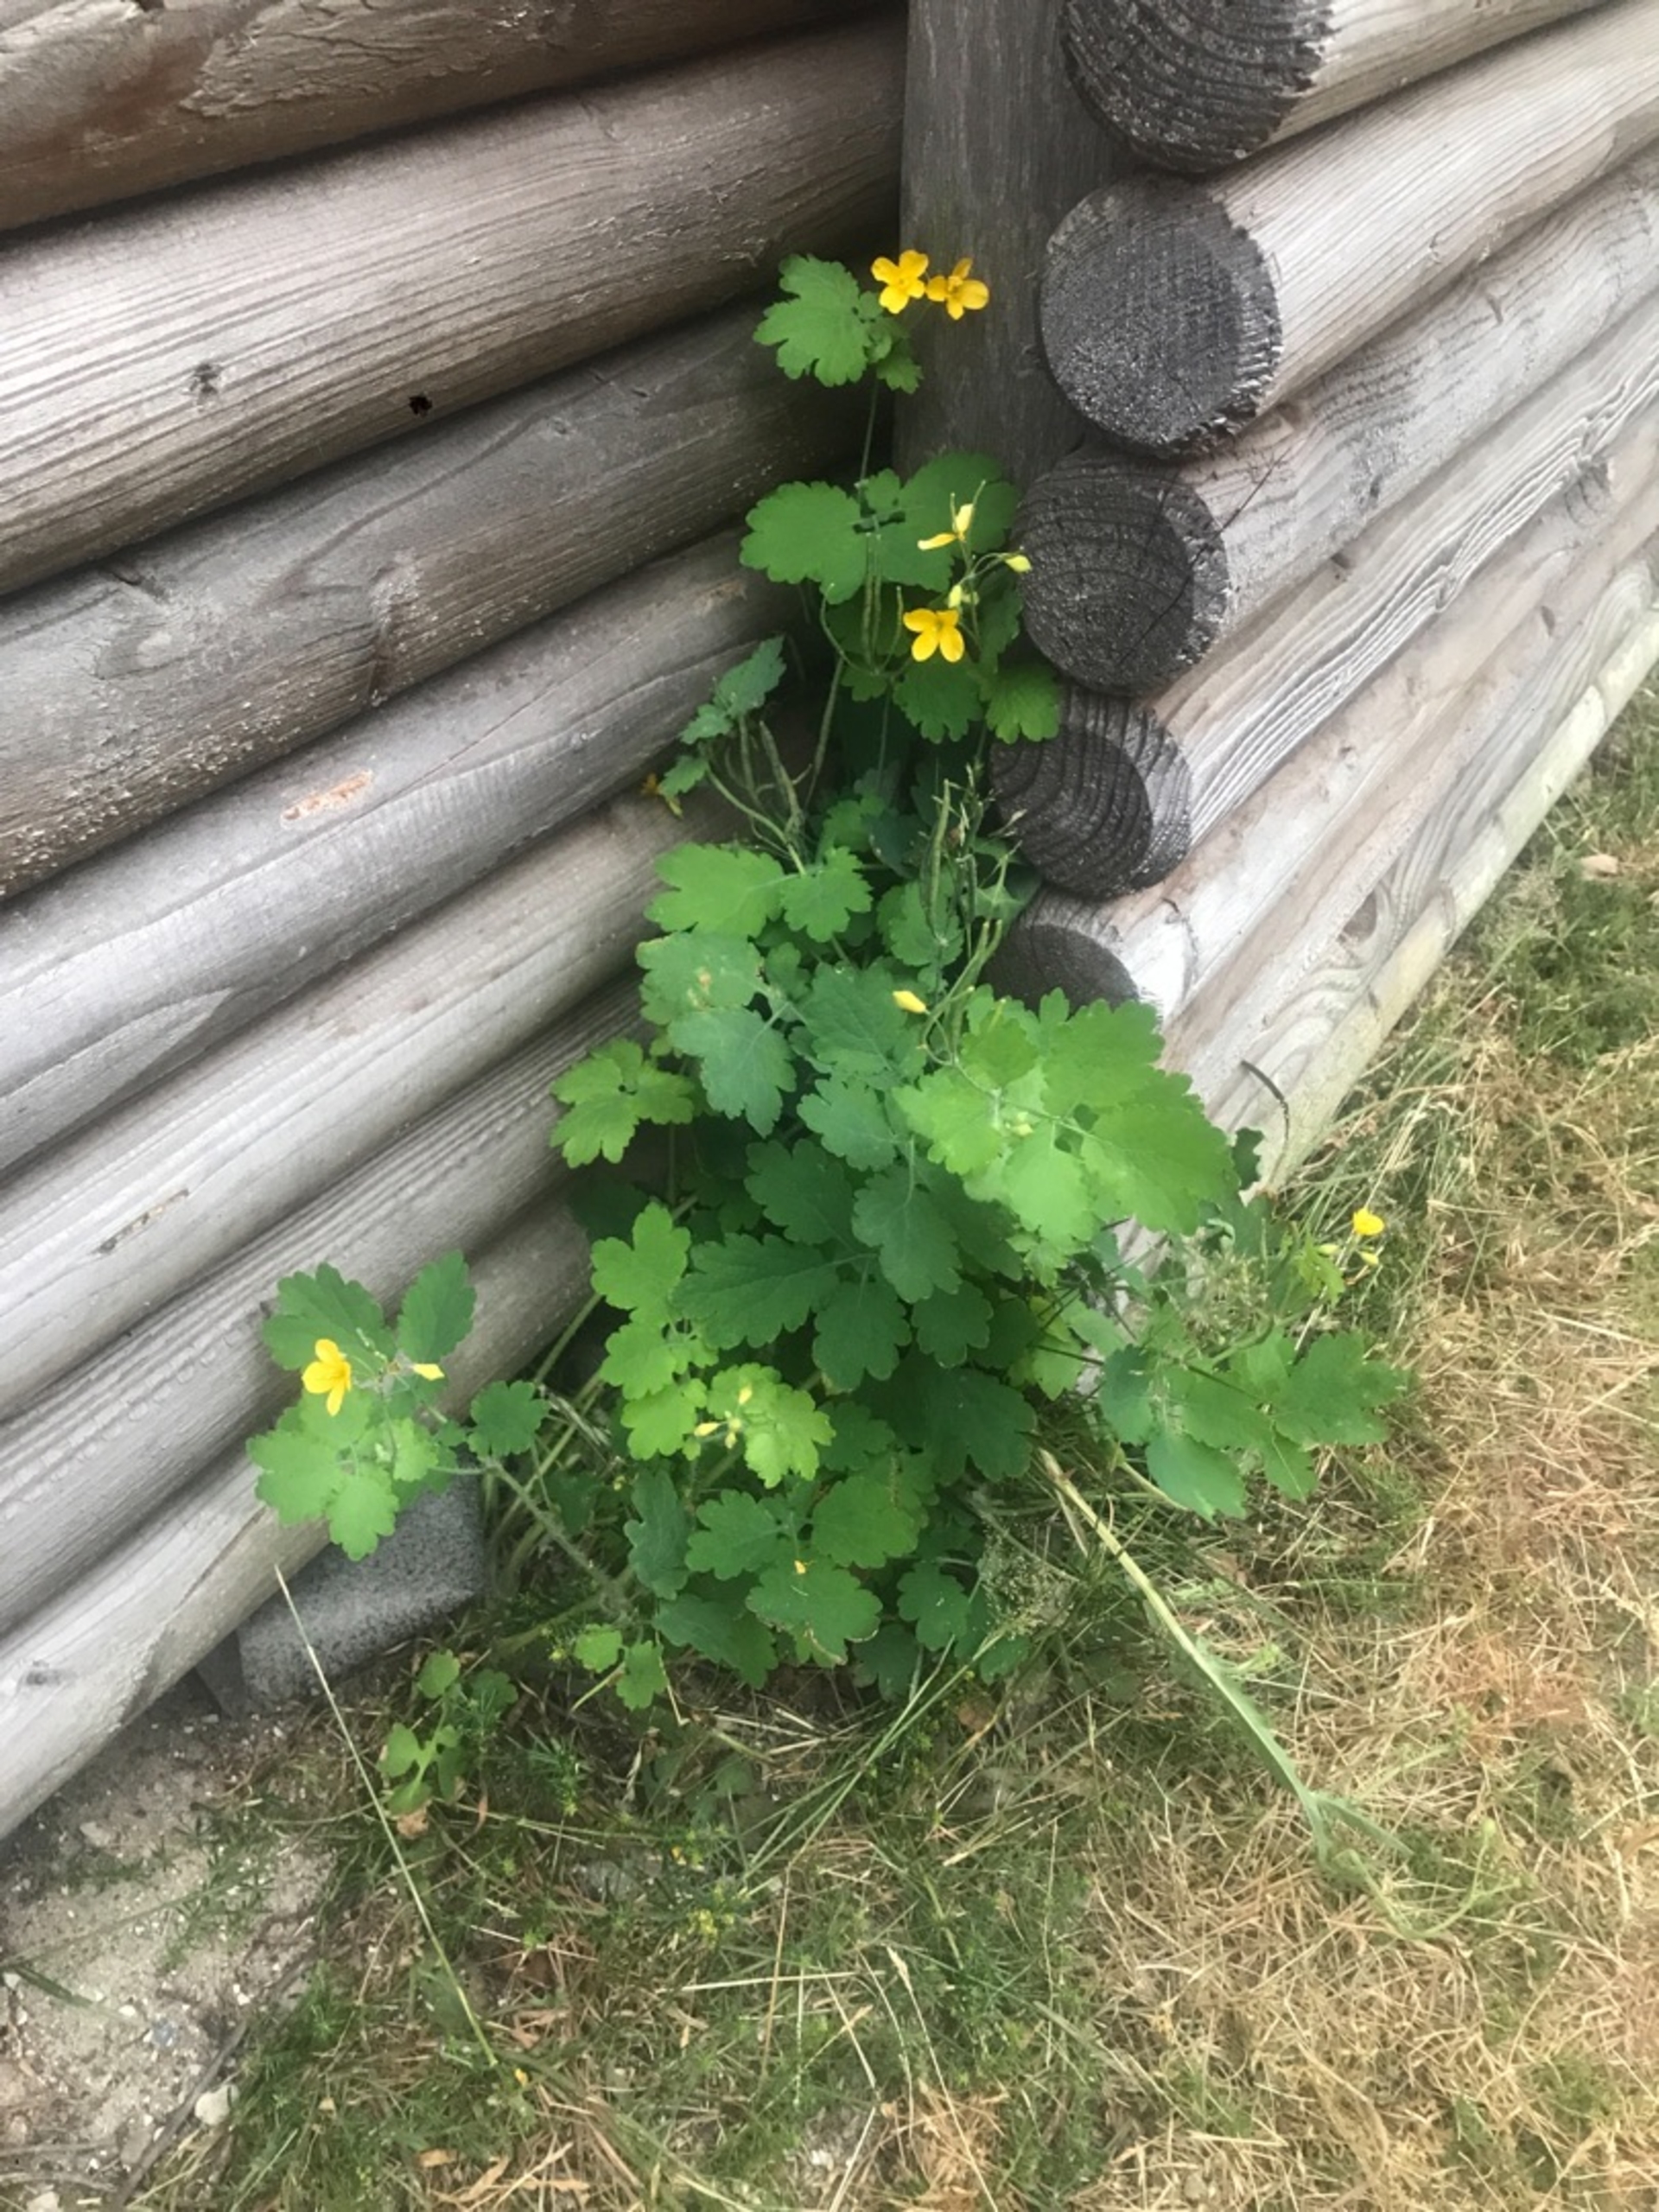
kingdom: Plantae
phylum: Tracheophyta
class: Magnoliopsida
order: Ranunculales
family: Papaveraceae
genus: Chelidonium
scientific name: Chelidonium majus
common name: Svaleurt
